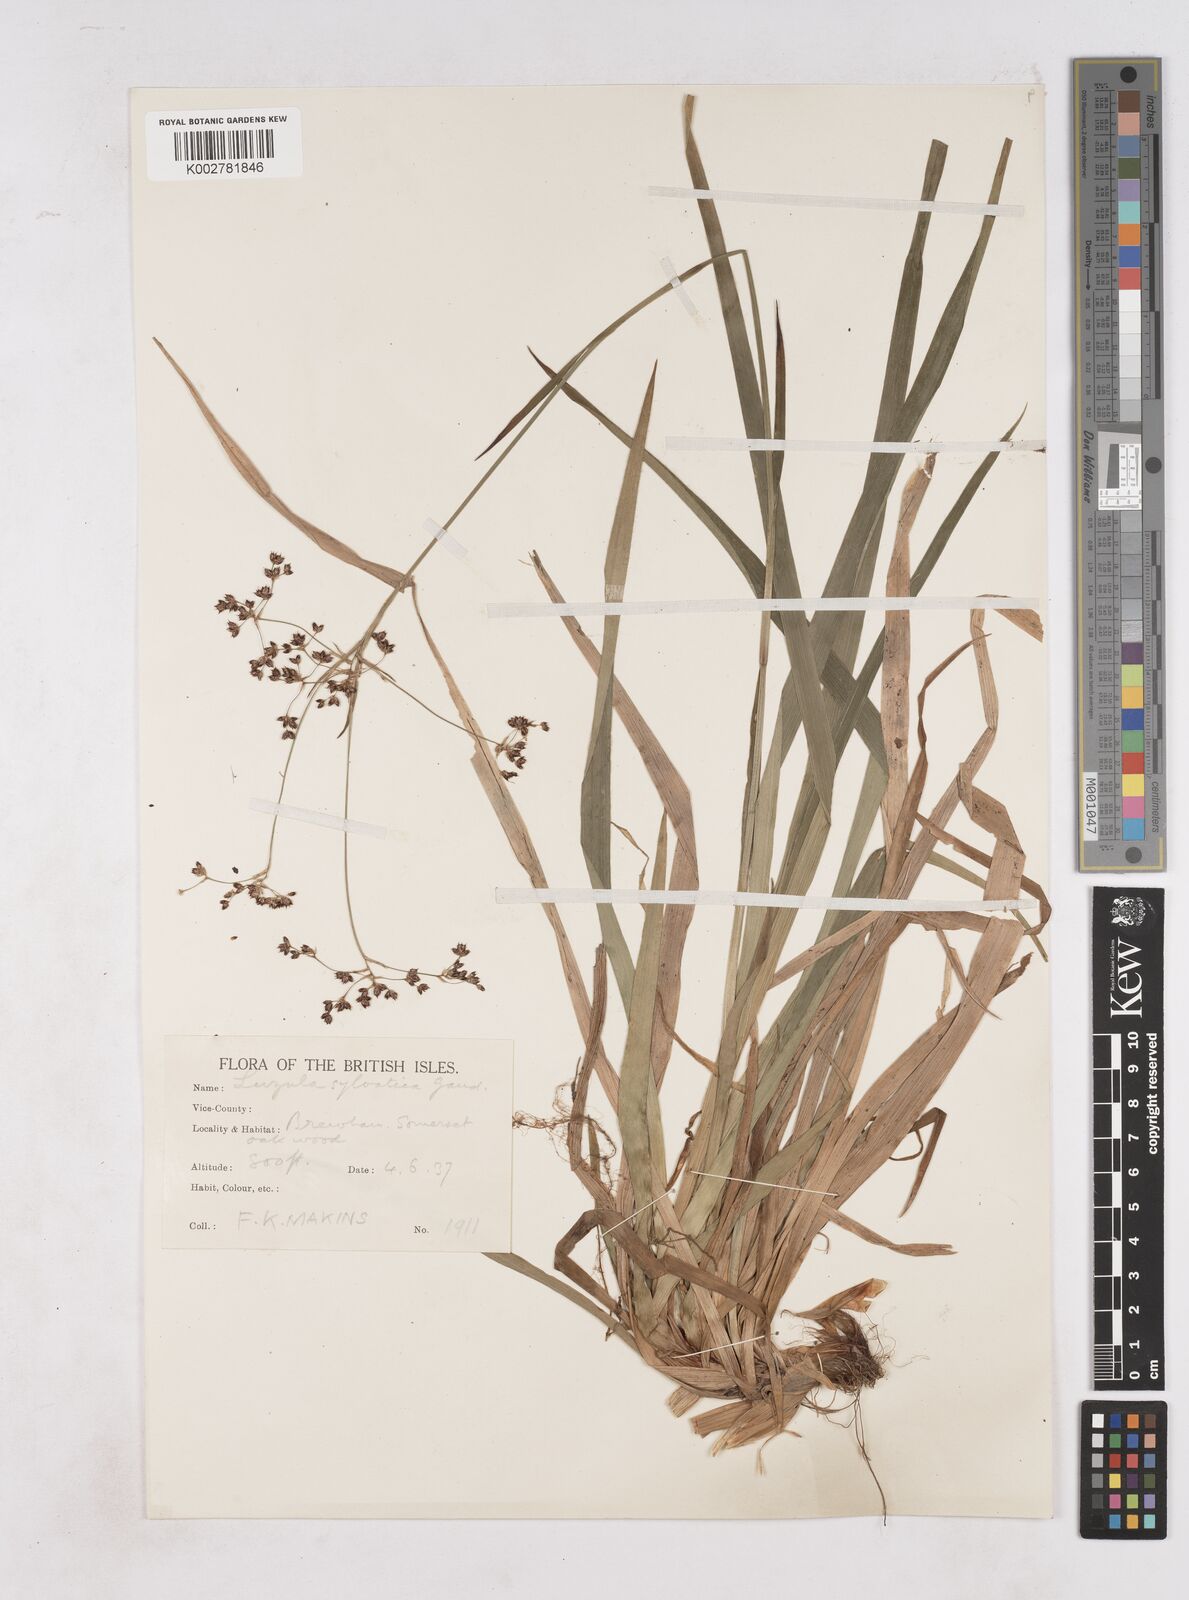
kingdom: Plantae
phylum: Tracheophyta
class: Liliopsida
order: Poales
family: Juncaceae
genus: Luzula
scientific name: Luzula sylvatica
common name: Great wood-rush
